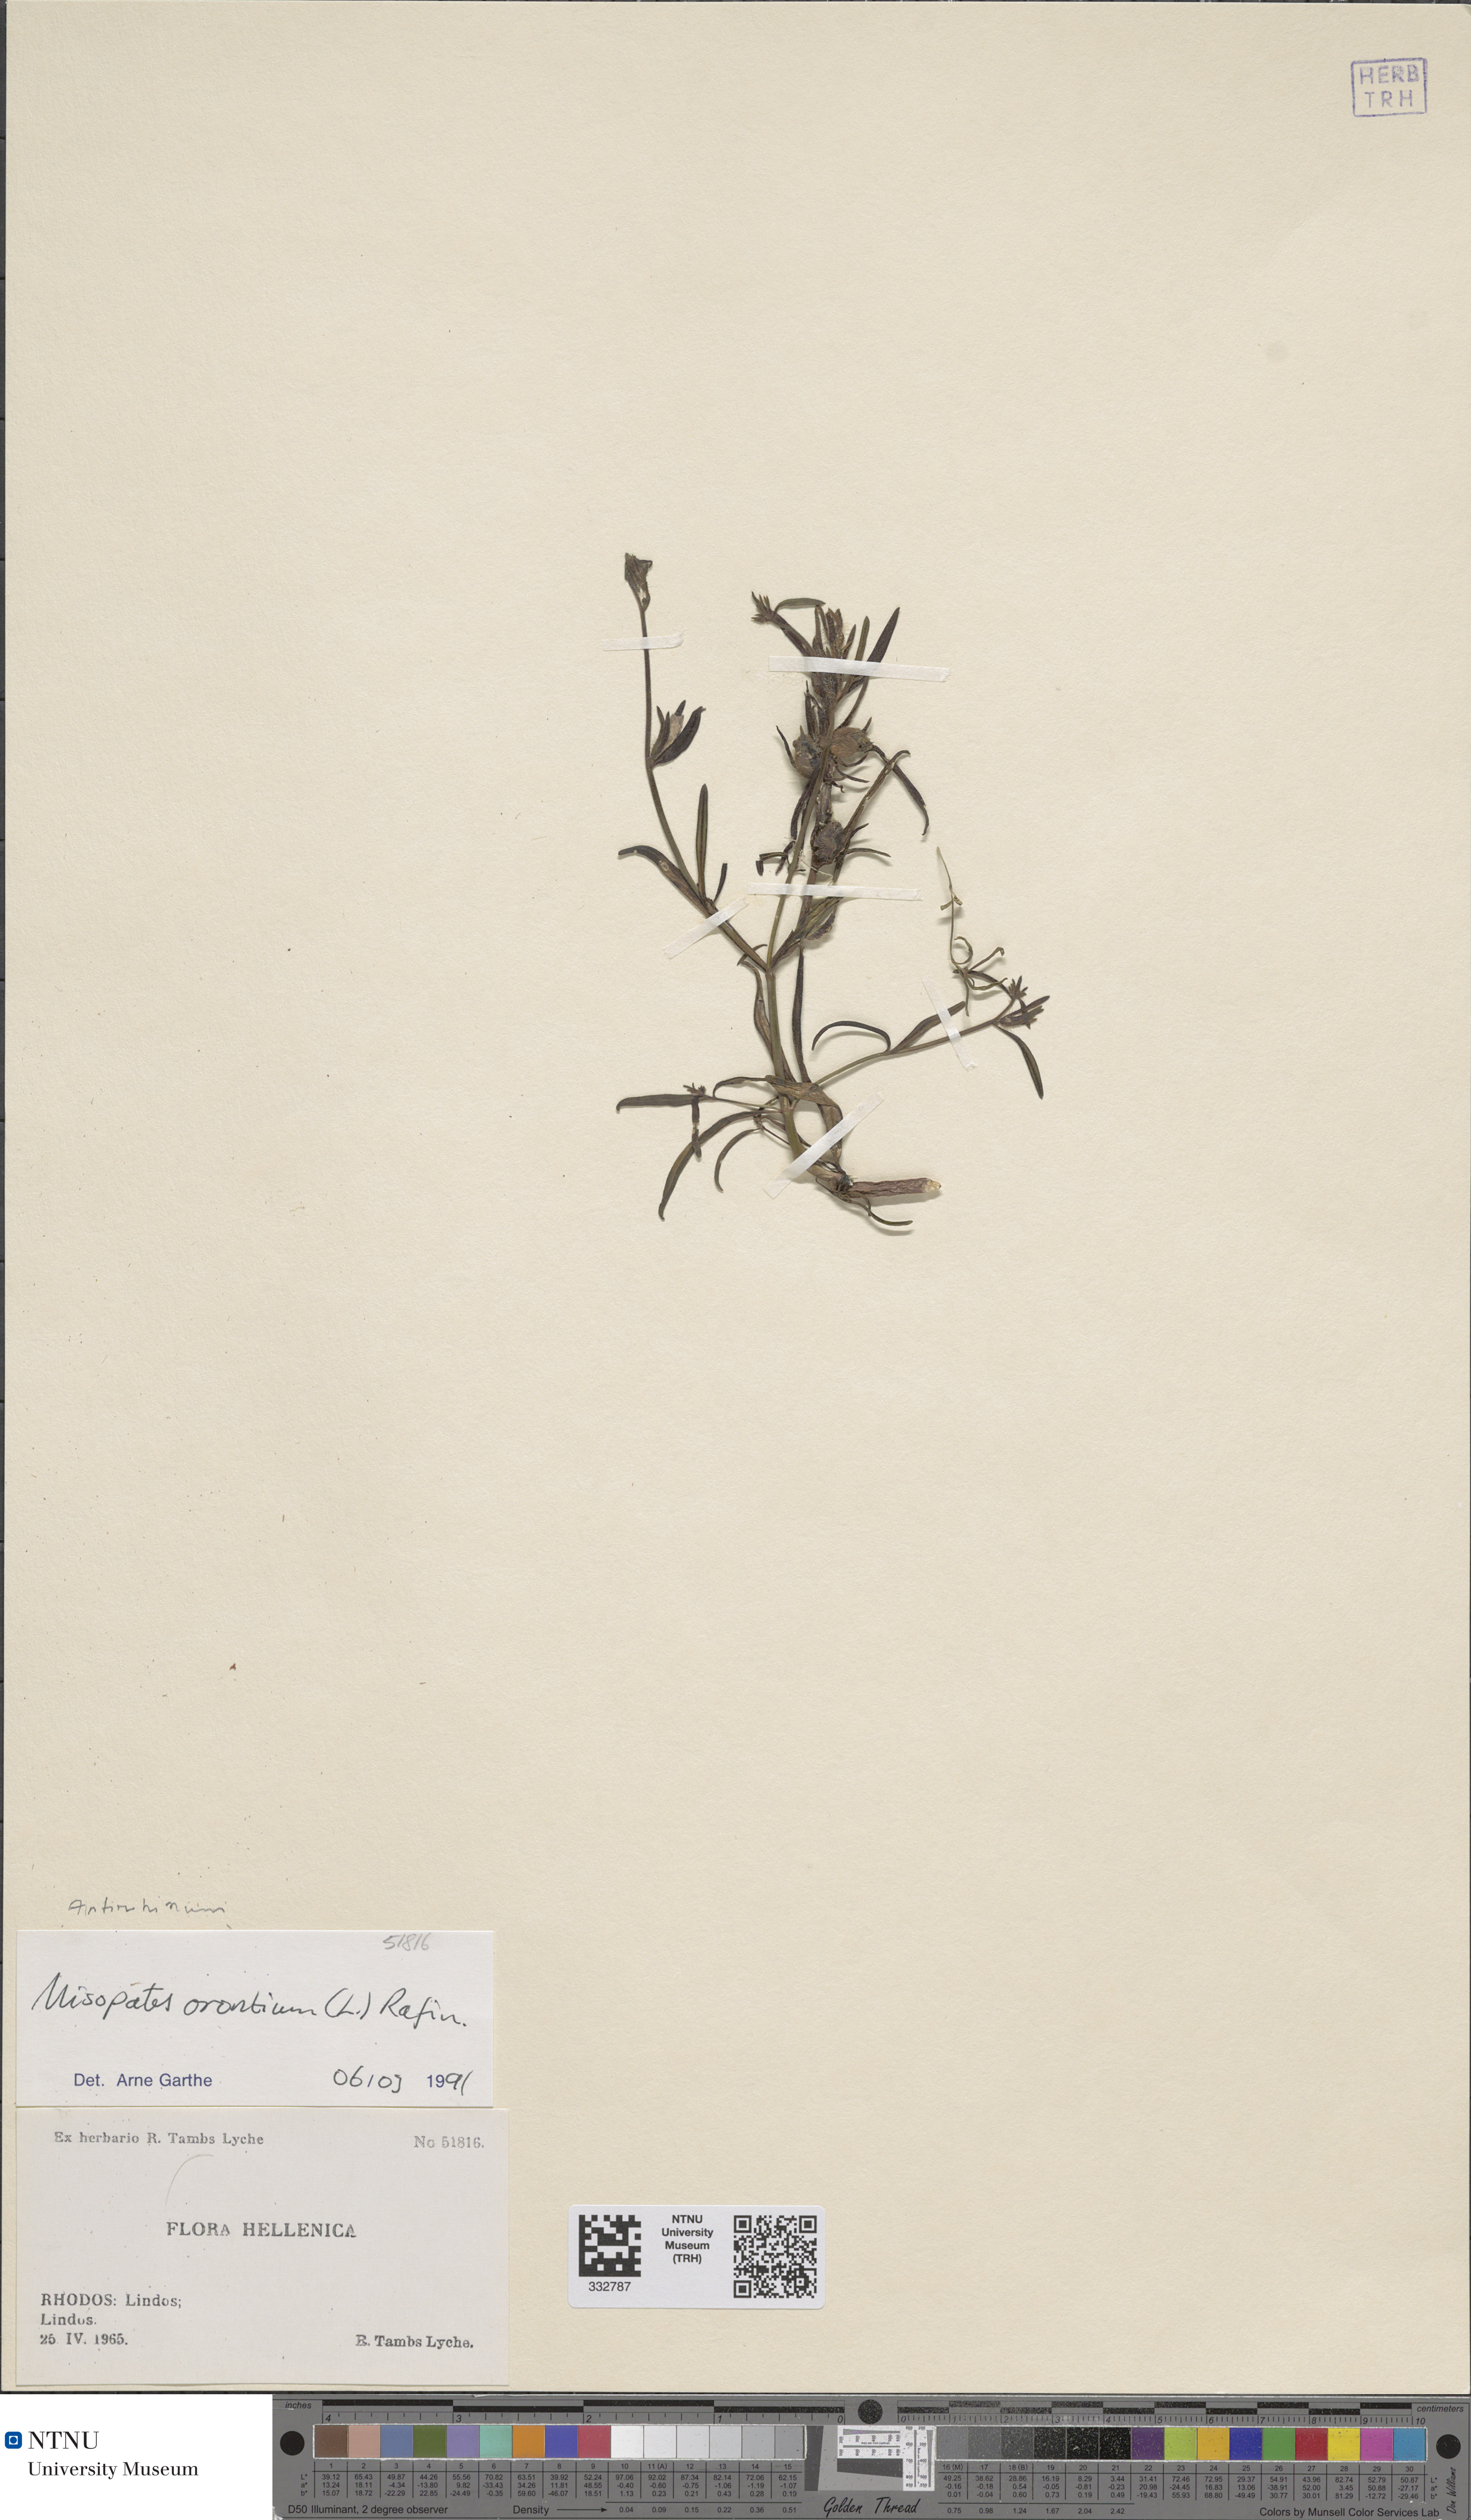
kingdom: Plantae
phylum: Tracheophyta
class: Magnoliopsida
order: Lamiales
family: Plantaginaceae
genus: Misopates
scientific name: Misopates orontium
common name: Weasel's-snout
